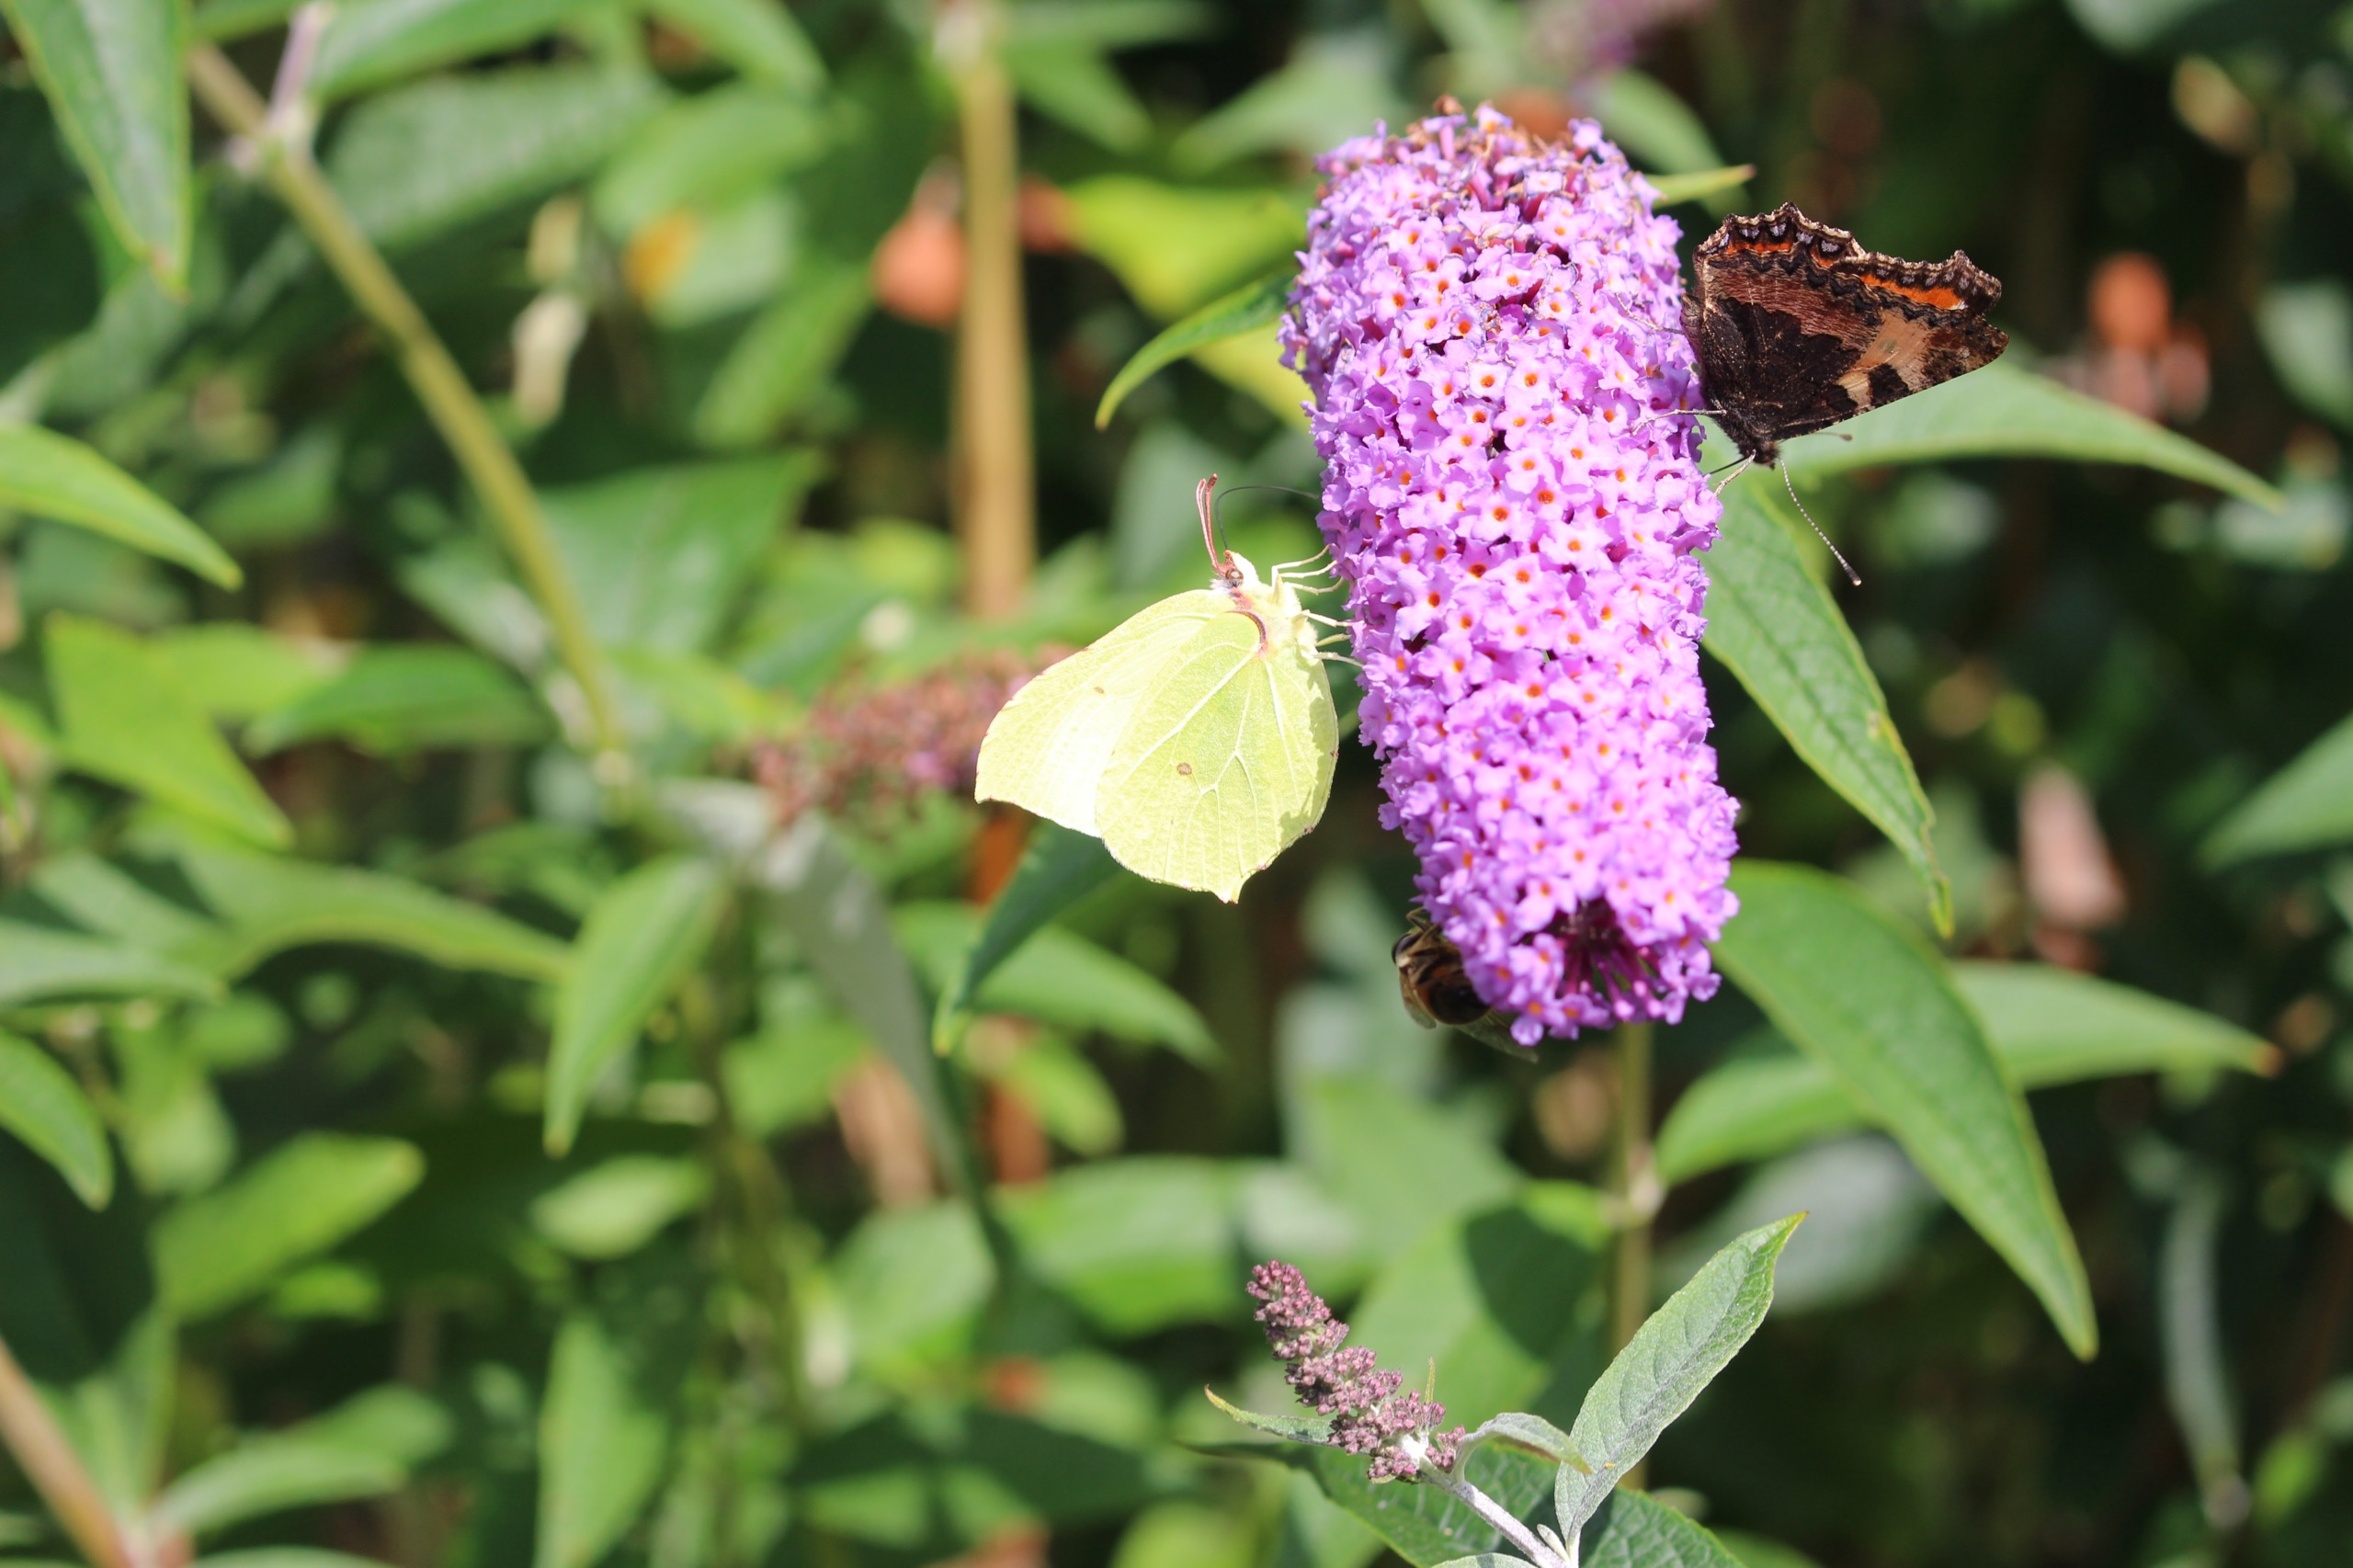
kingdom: Animalia
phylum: Arthropoda
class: Insecta
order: Lepidoptera
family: Pieridae
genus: Gonepteryx
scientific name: Gonepteryx rhamni
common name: Citronsommerfugl
